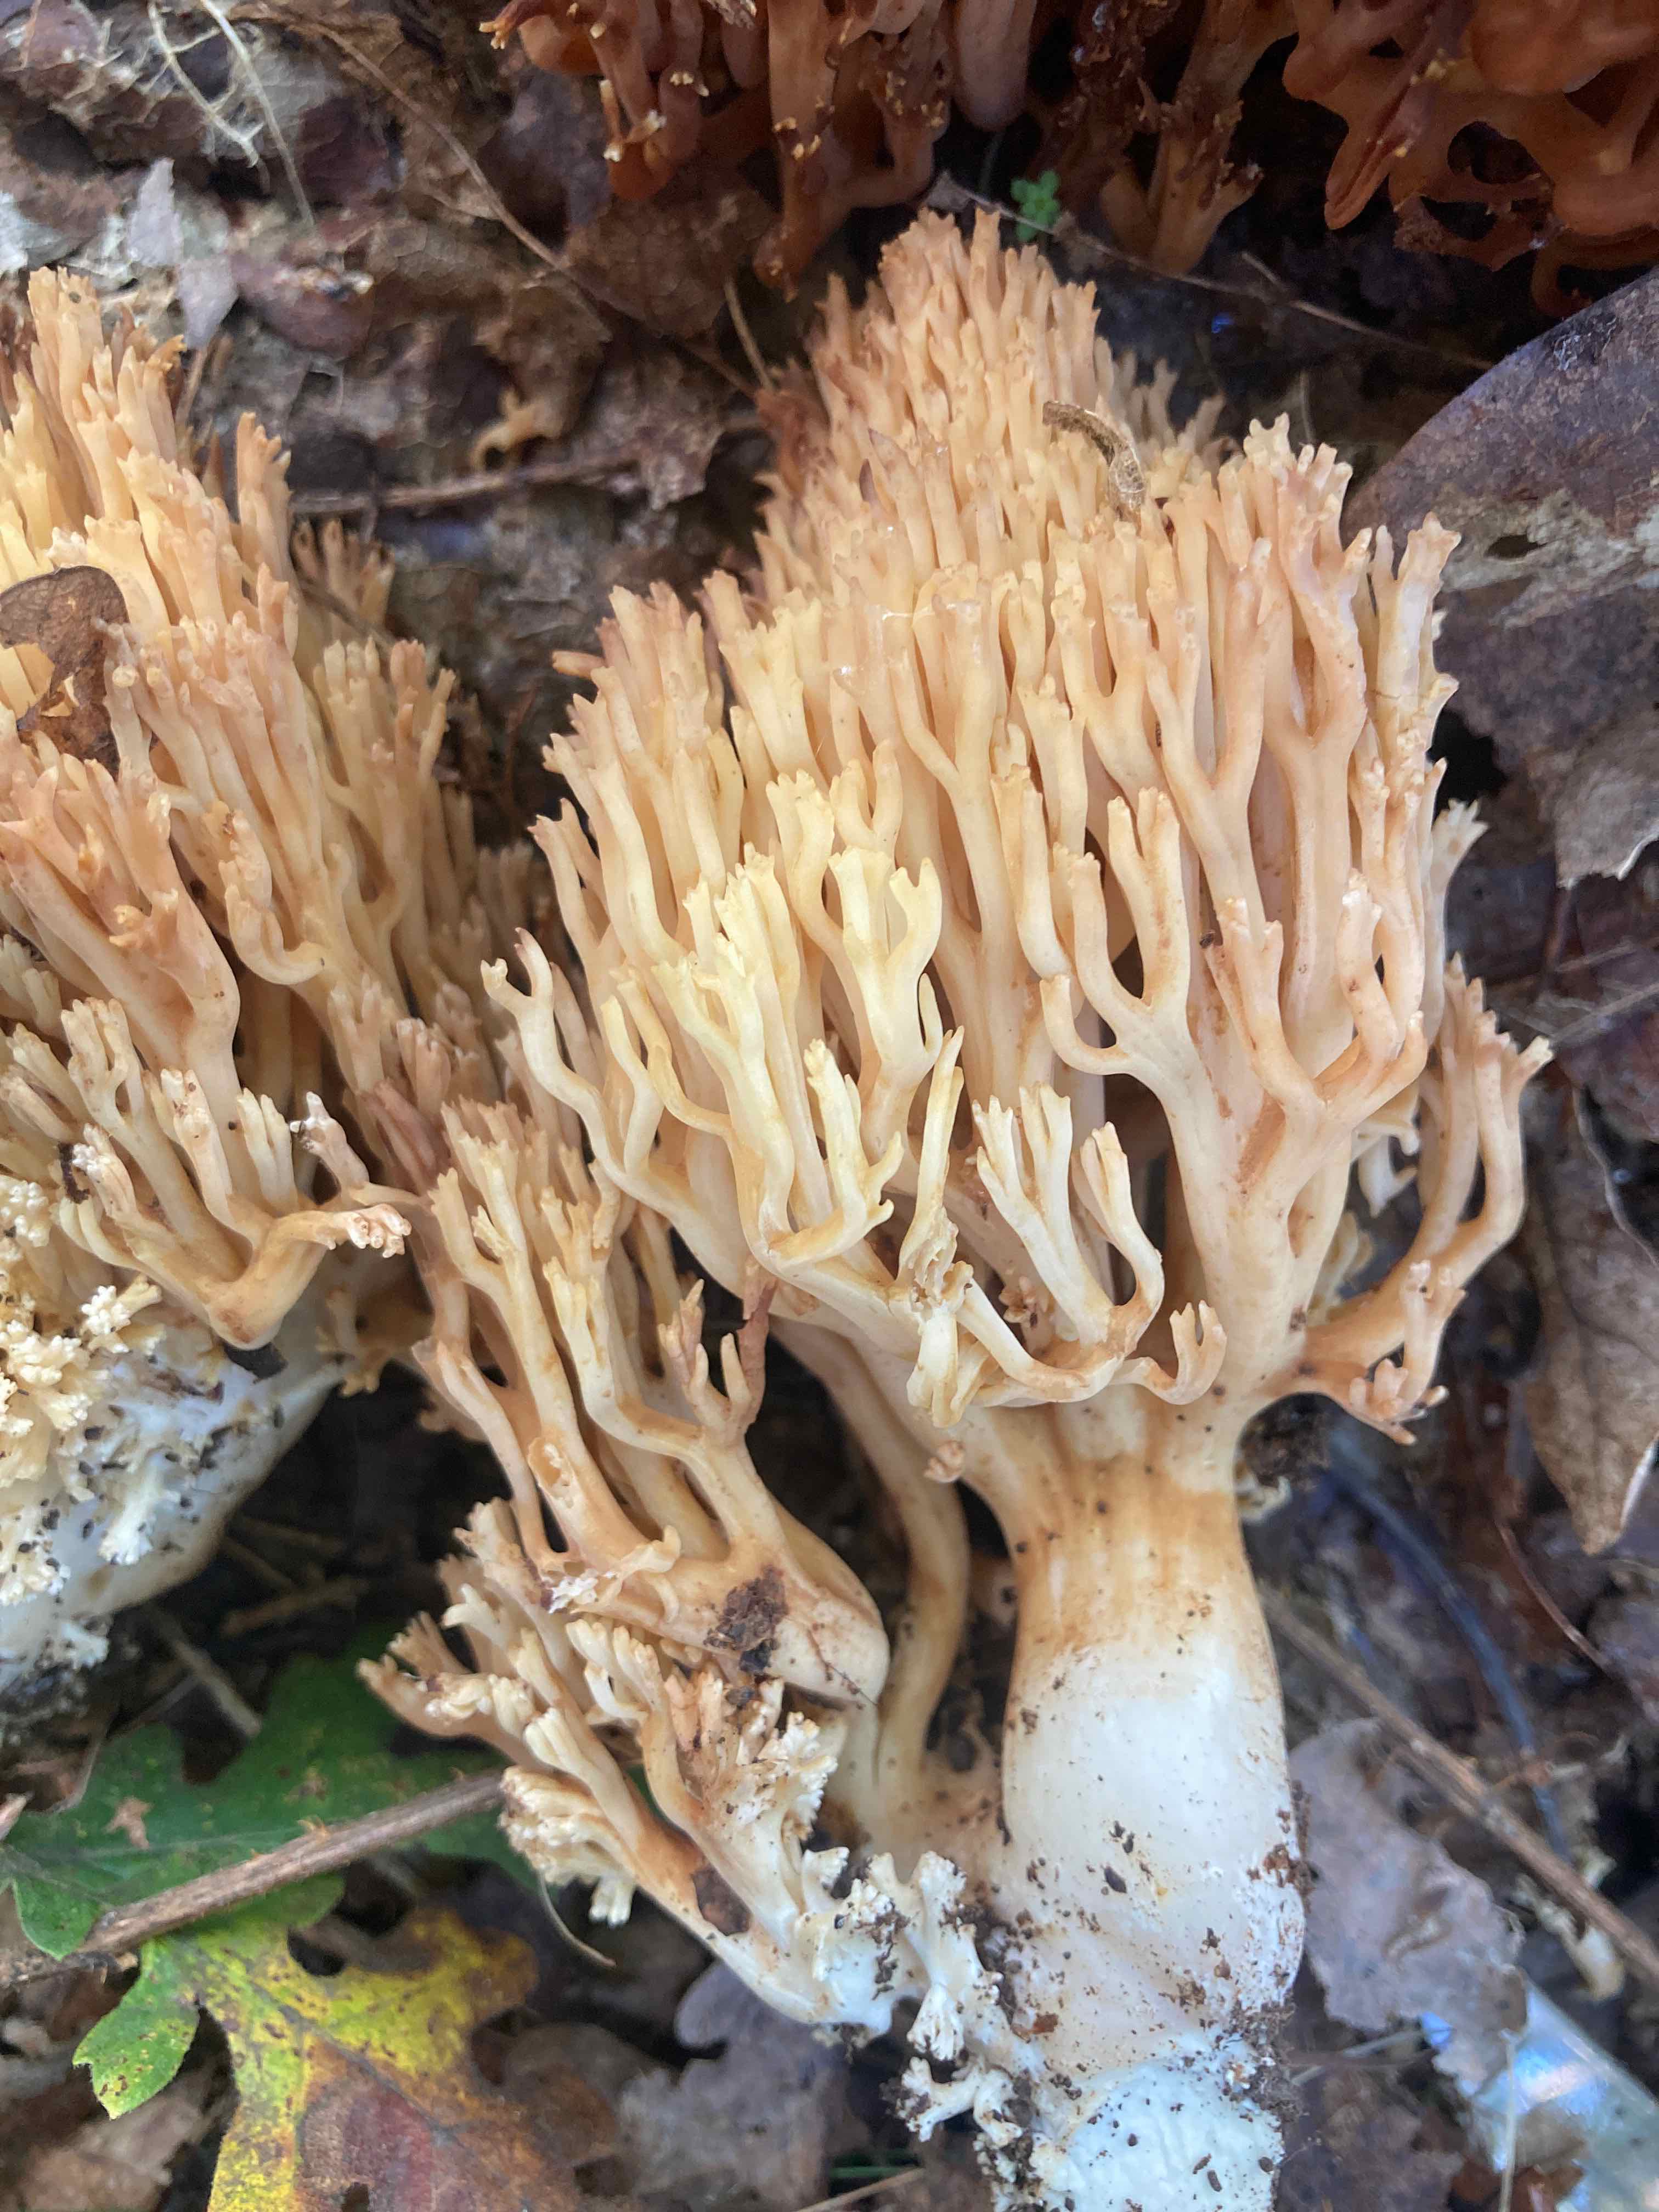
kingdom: Fungi
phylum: Basidiomycota
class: Agaricomycetes
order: Gomphales
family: Gomphaceae
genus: Ramaria
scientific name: Ramaria
